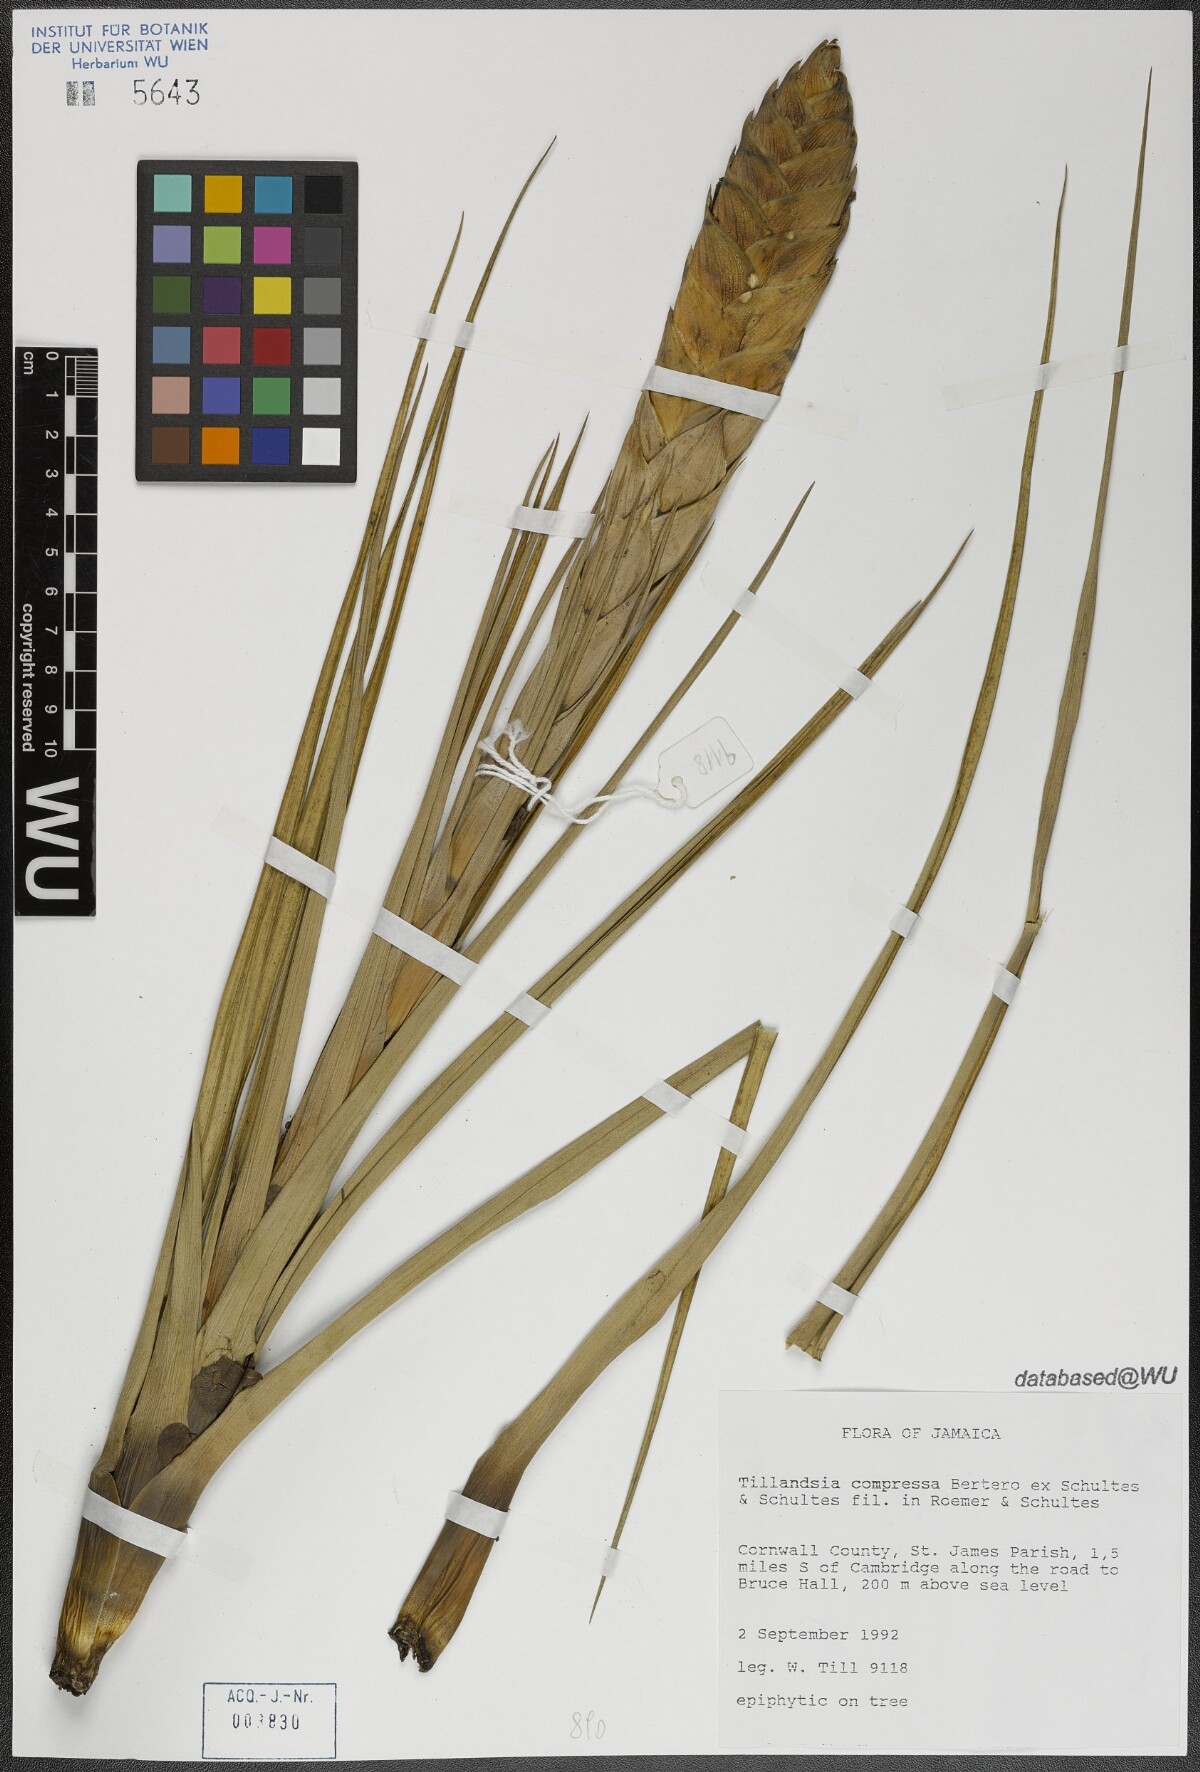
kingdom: Plantae
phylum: Tracheophyta
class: Liliopsida
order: Poales
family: Bromeliaceae
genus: Tillandsia
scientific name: Tillandsia compressa
